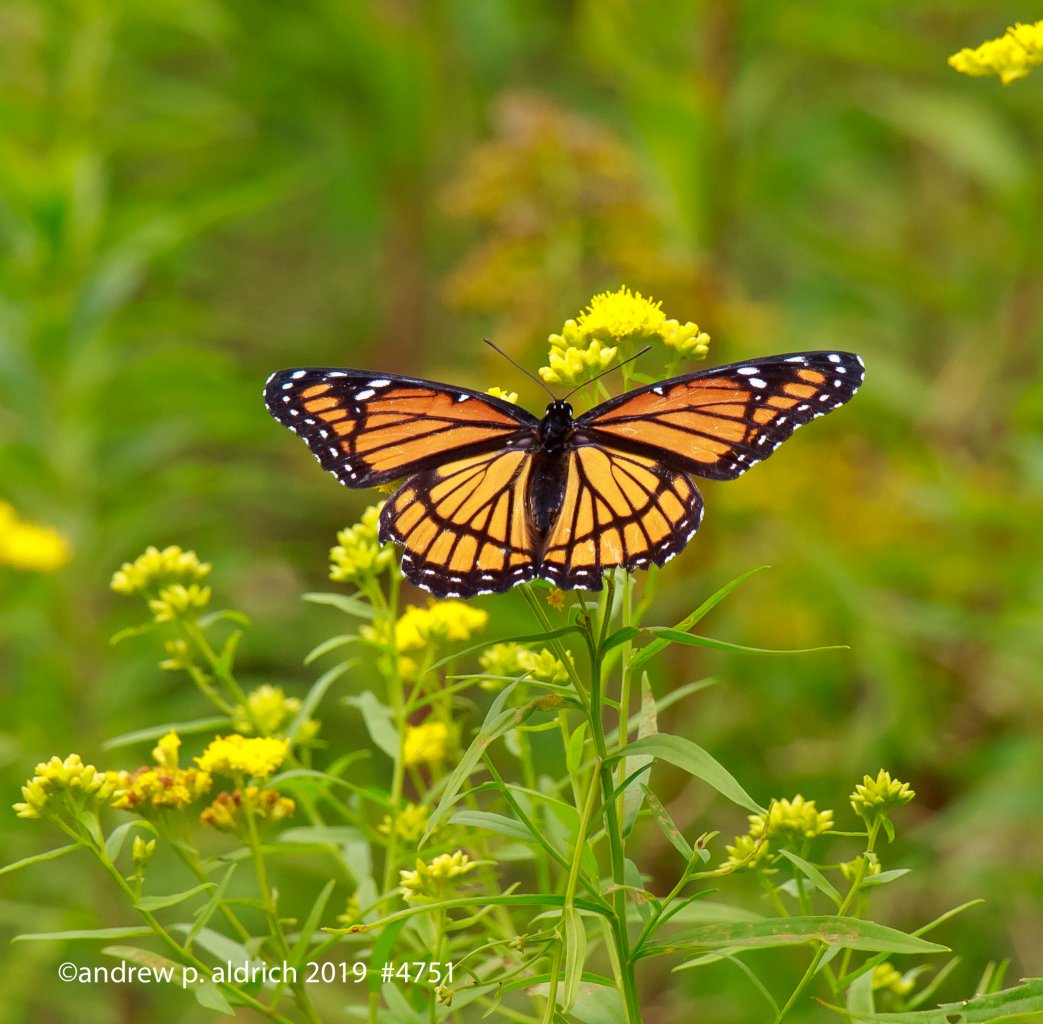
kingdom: Animalia
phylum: Arthropoda
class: Insecta
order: Lepidoptera
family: Nymphalidae
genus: Limenitis
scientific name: Limenitis archippus
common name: Viceroy
